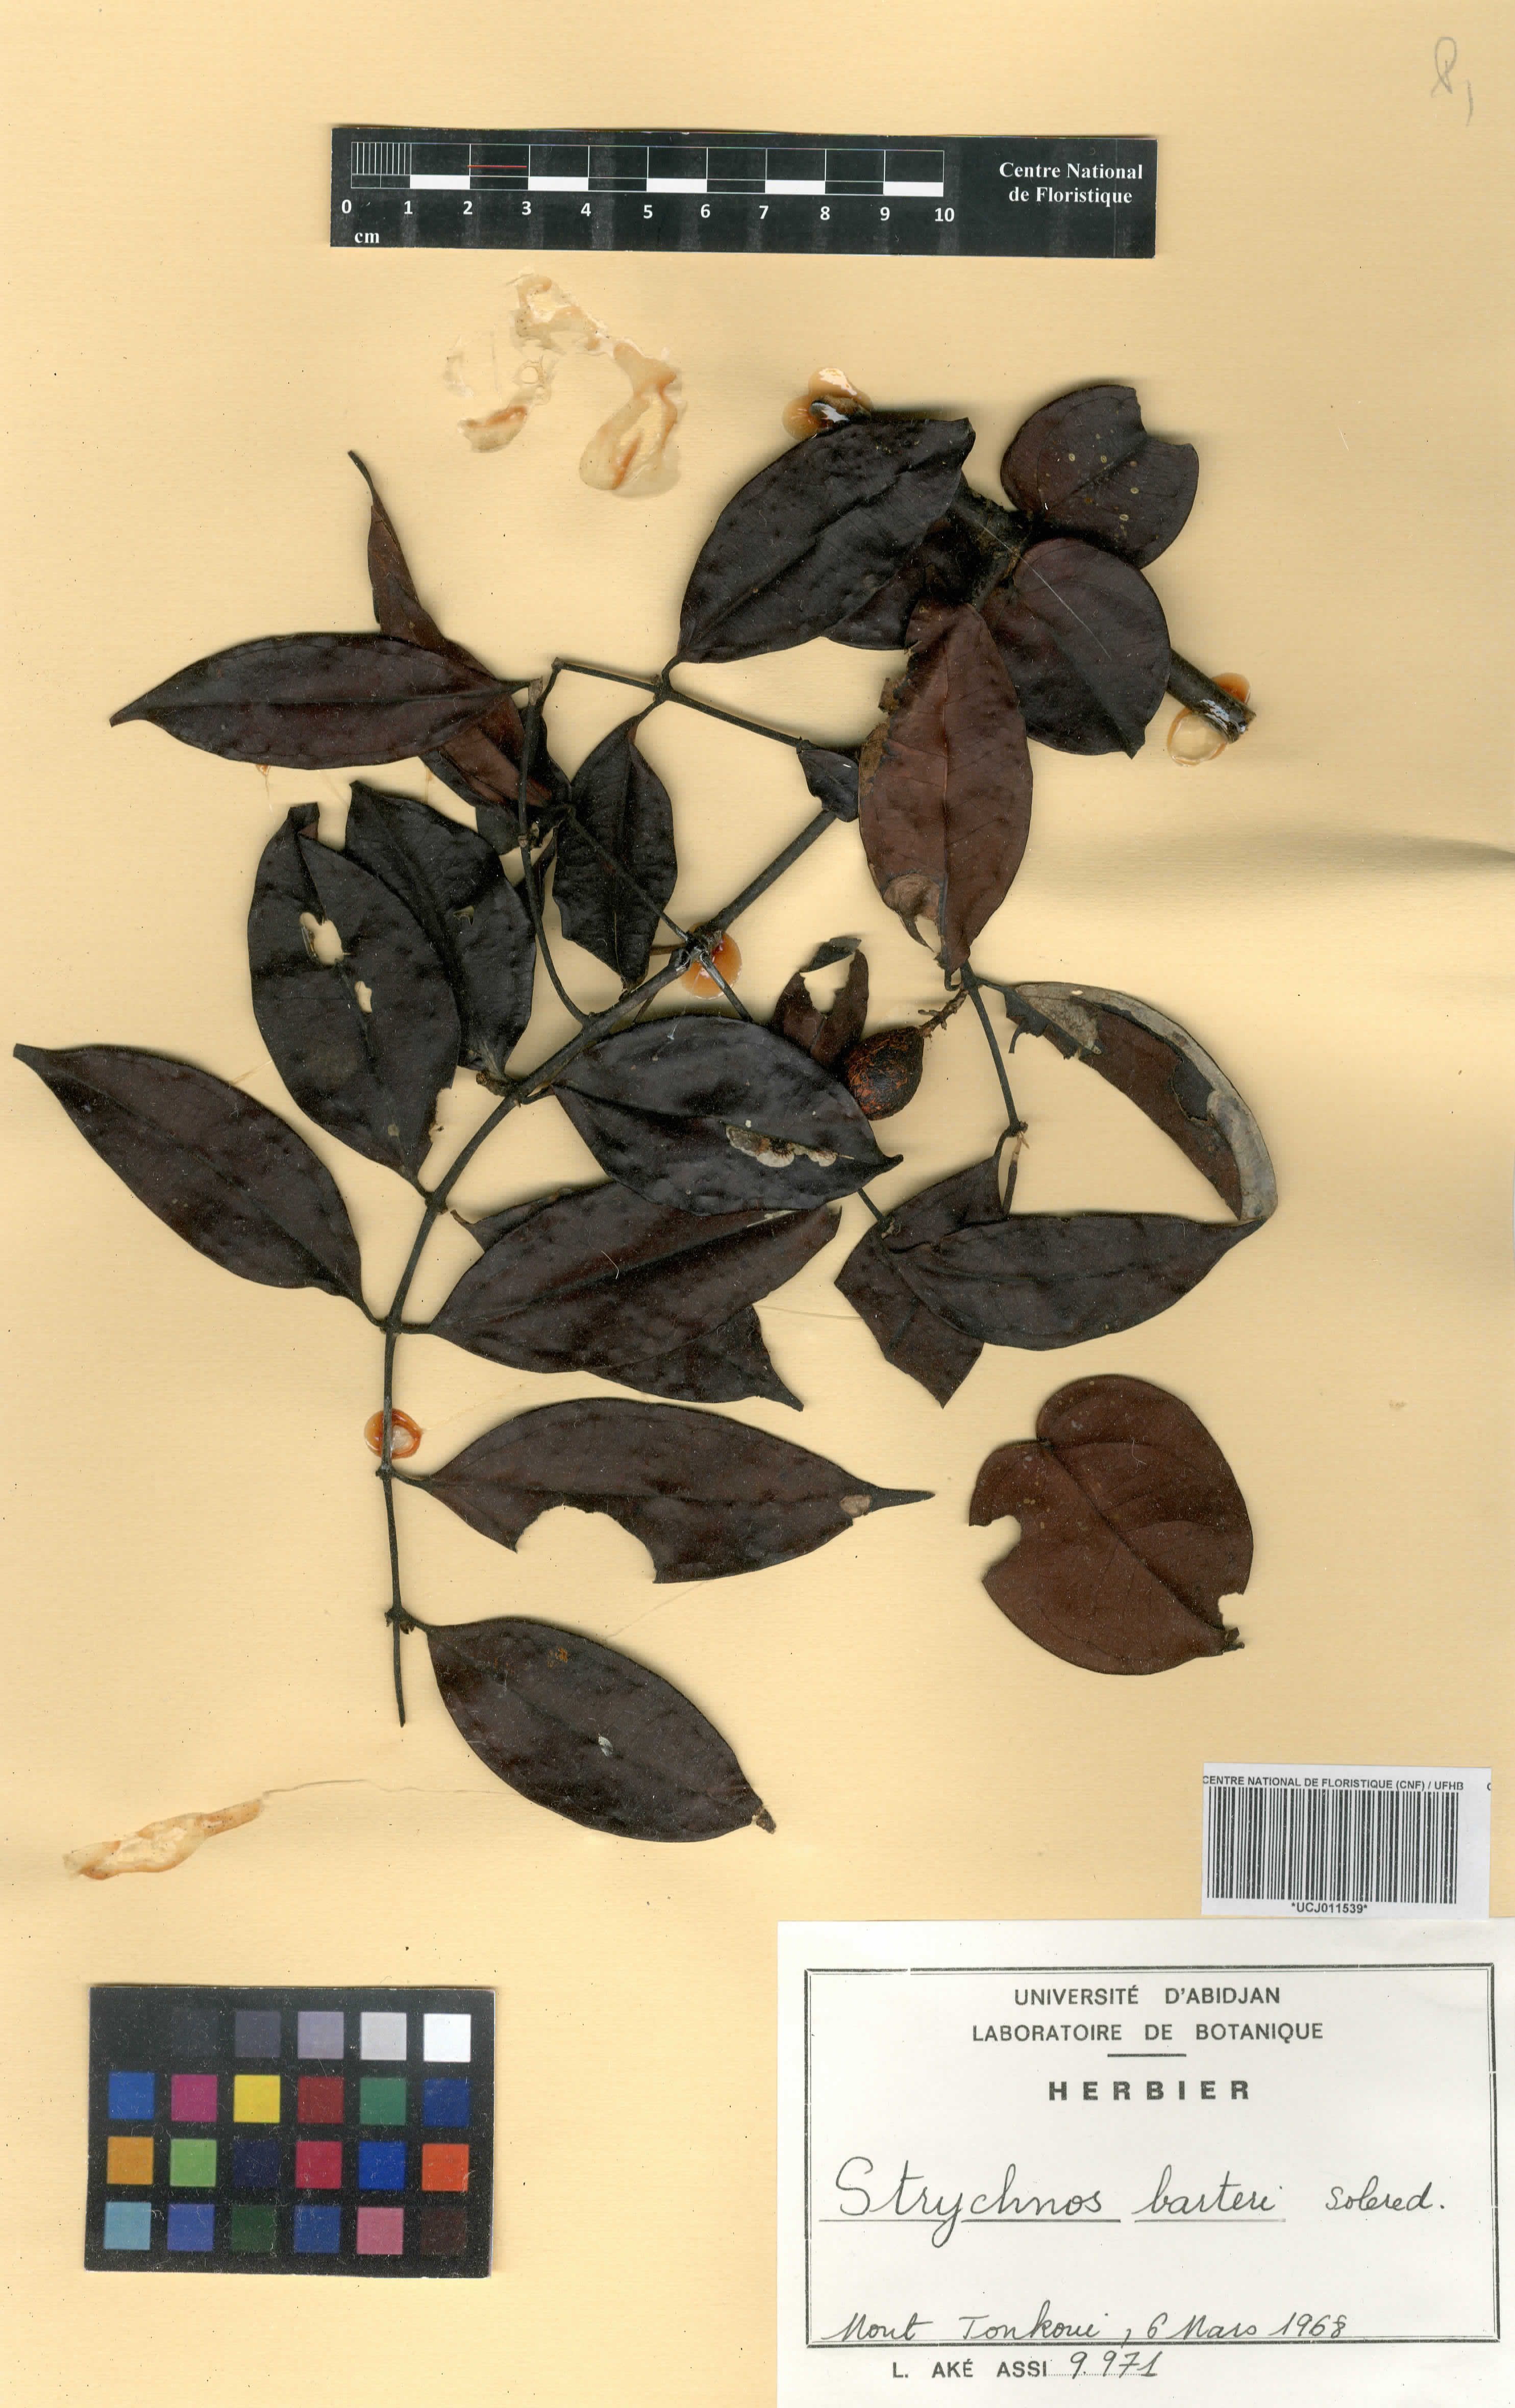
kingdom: Plantae
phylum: Tracheophyta
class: Magnoliopsida
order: Gentianales
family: Loganiaceae
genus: Strychnos
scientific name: Strychnos barteri
